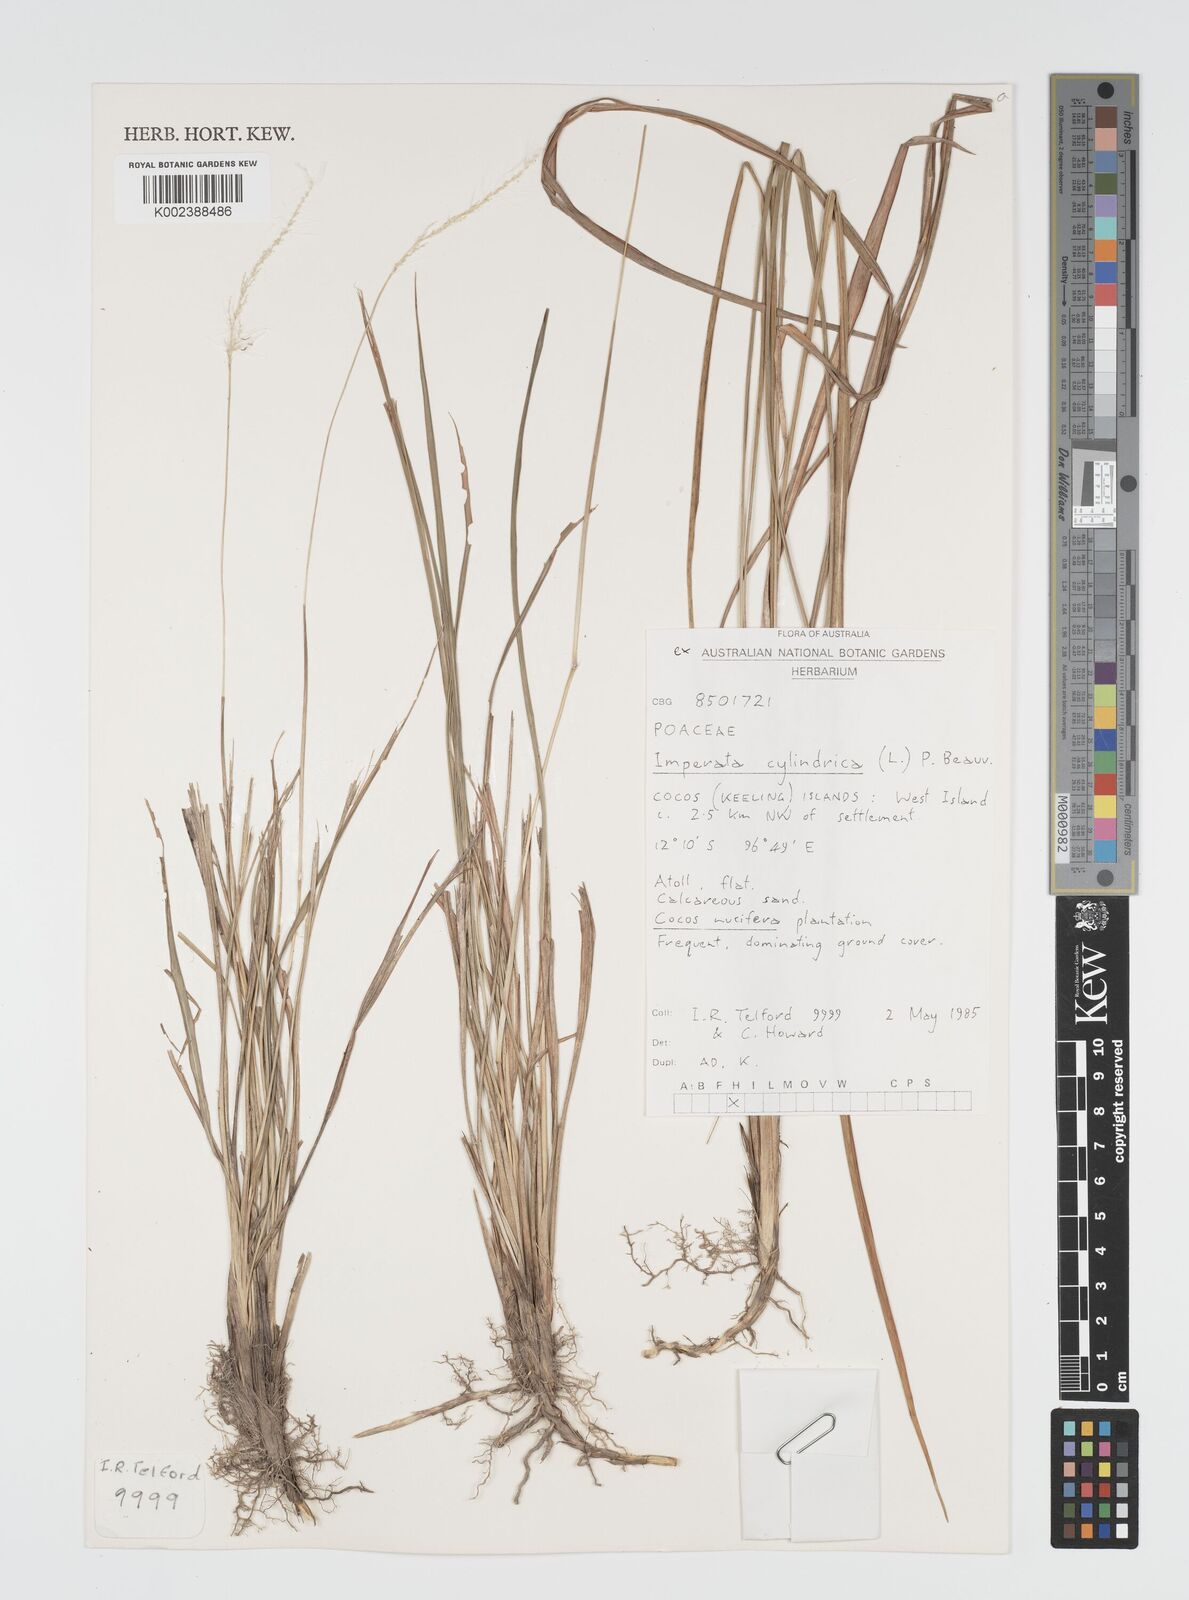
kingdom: Plantae
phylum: Tracheophyta
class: Liliopsida
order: Poales
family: Poaceae
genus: Imperata
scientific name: Imperata cylindrica
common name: Cogongrass
